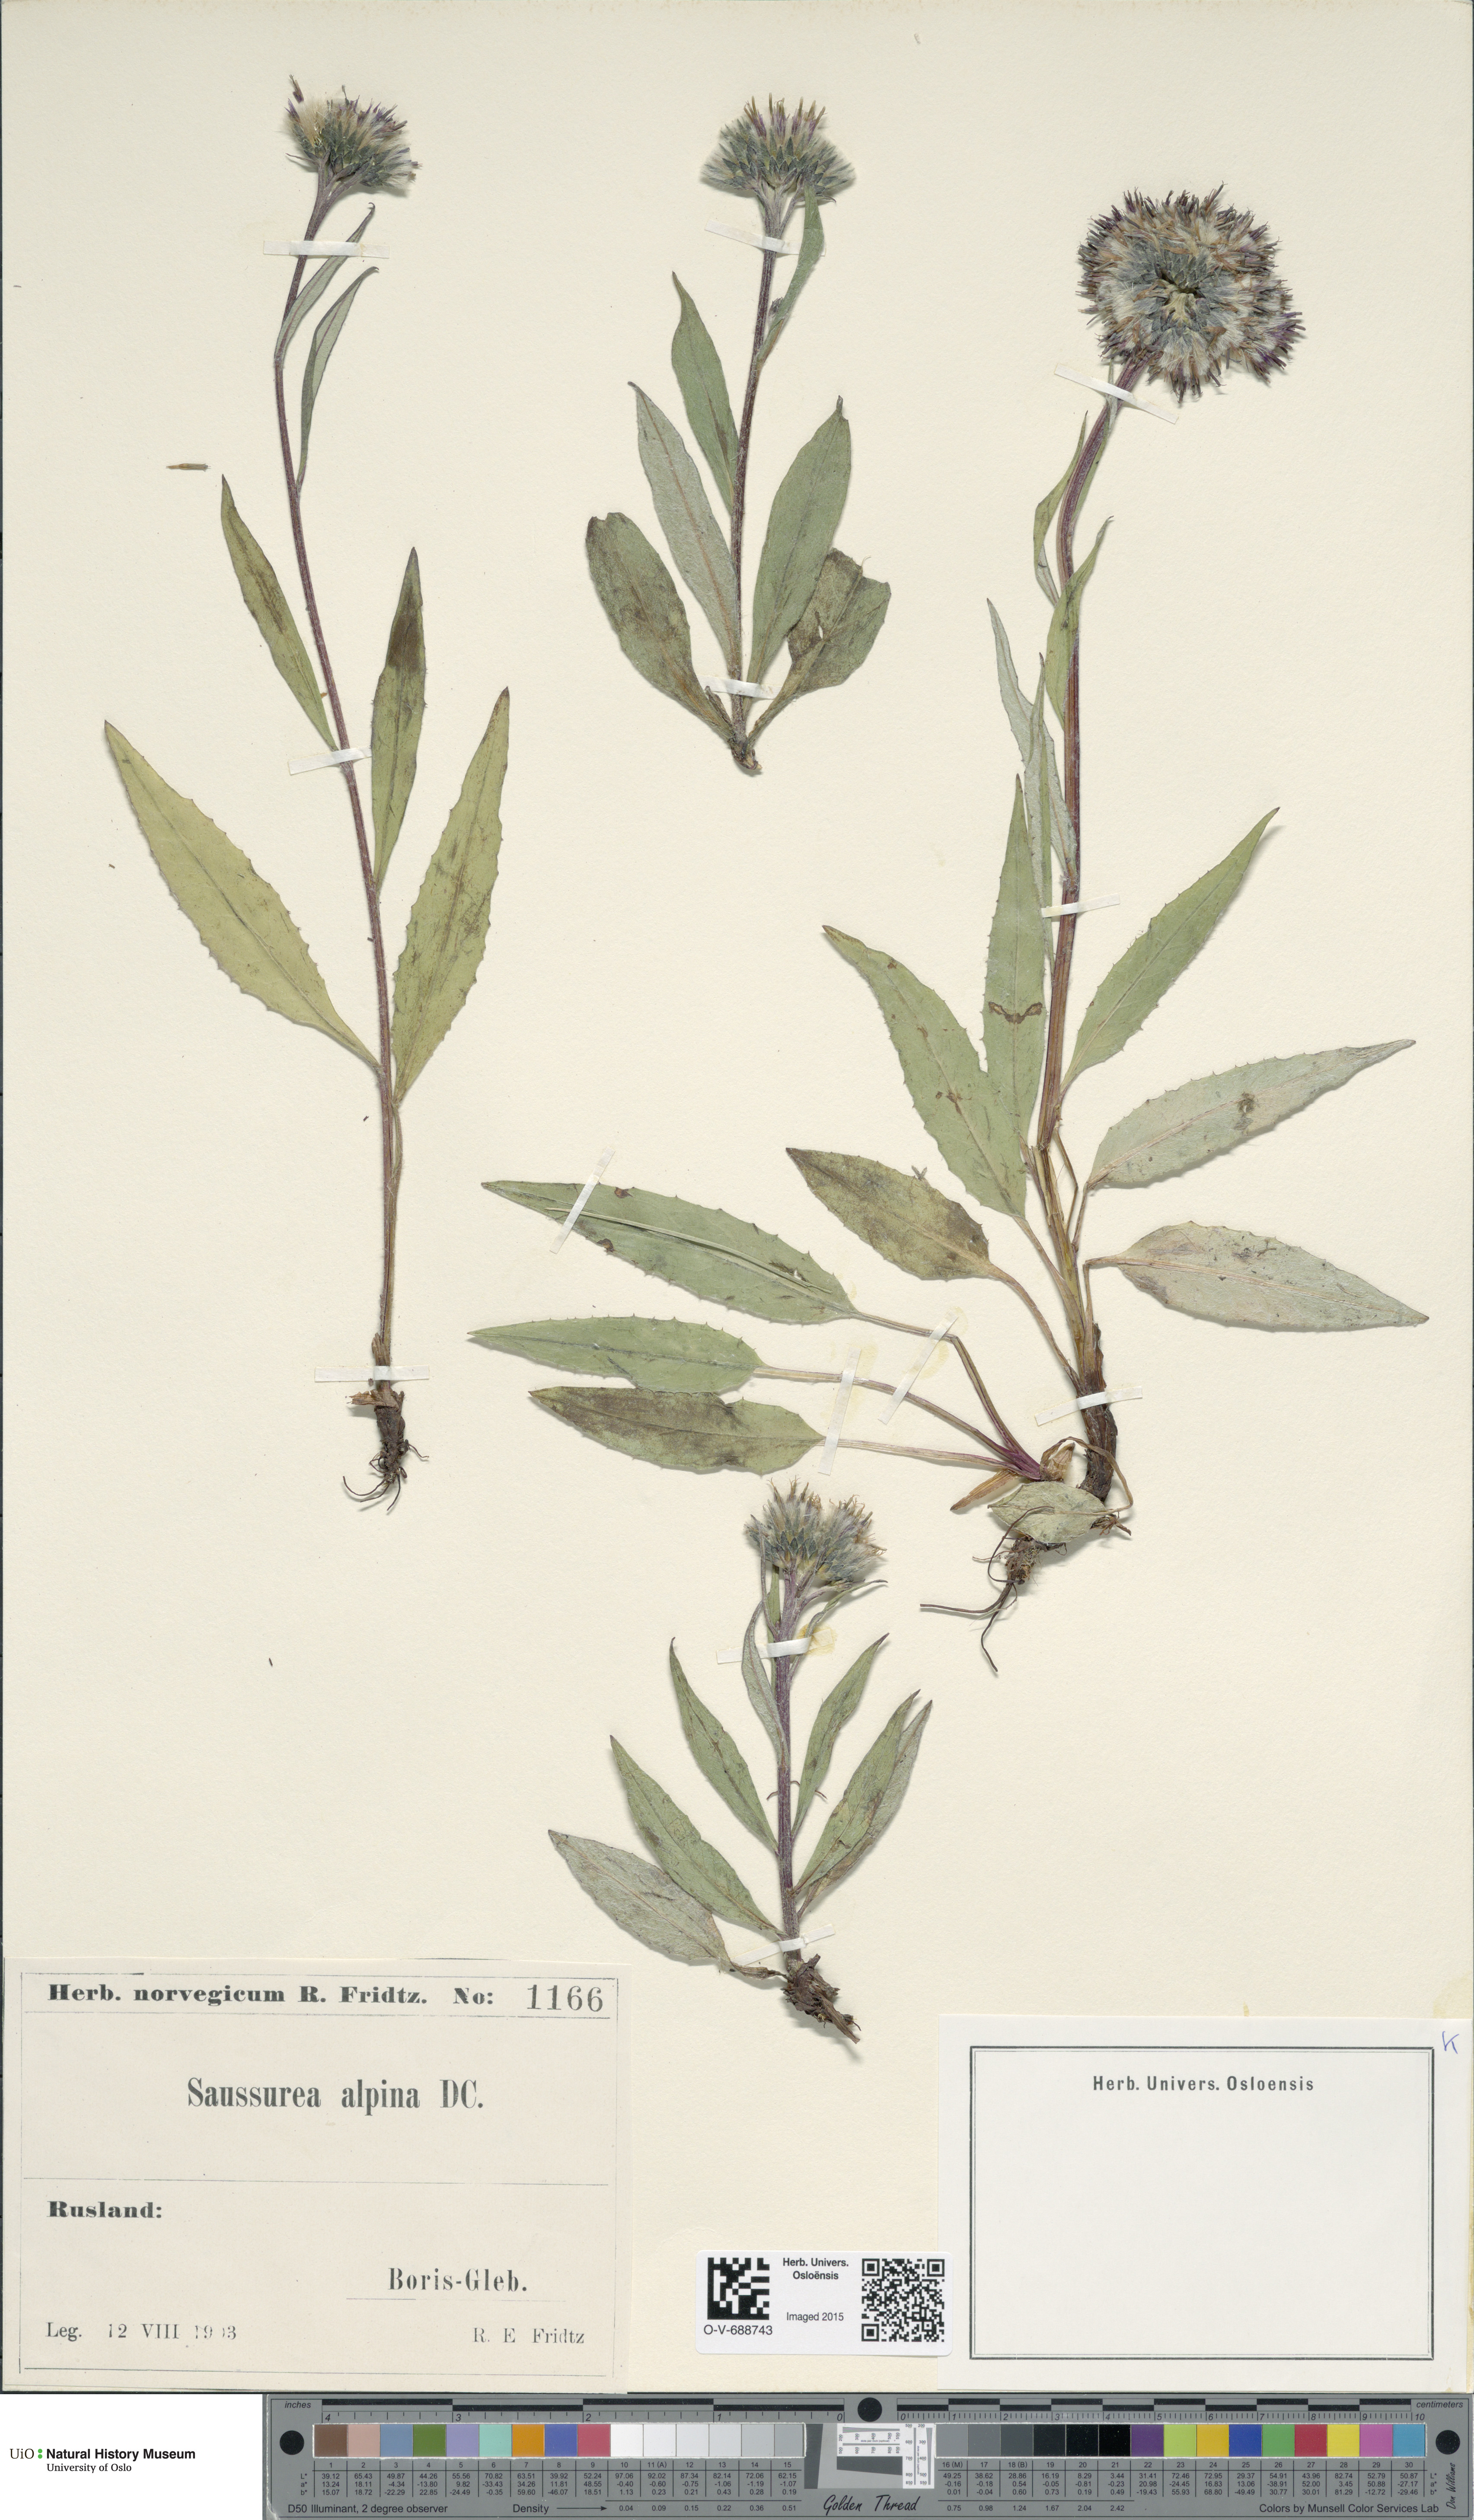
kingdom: Plantae
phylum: Tracheophyta
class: Magnoliopsida
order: Asterales
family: Asteraceae
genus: Saussurea
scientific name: Saussurea alpina
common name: Alpine saw-wort
